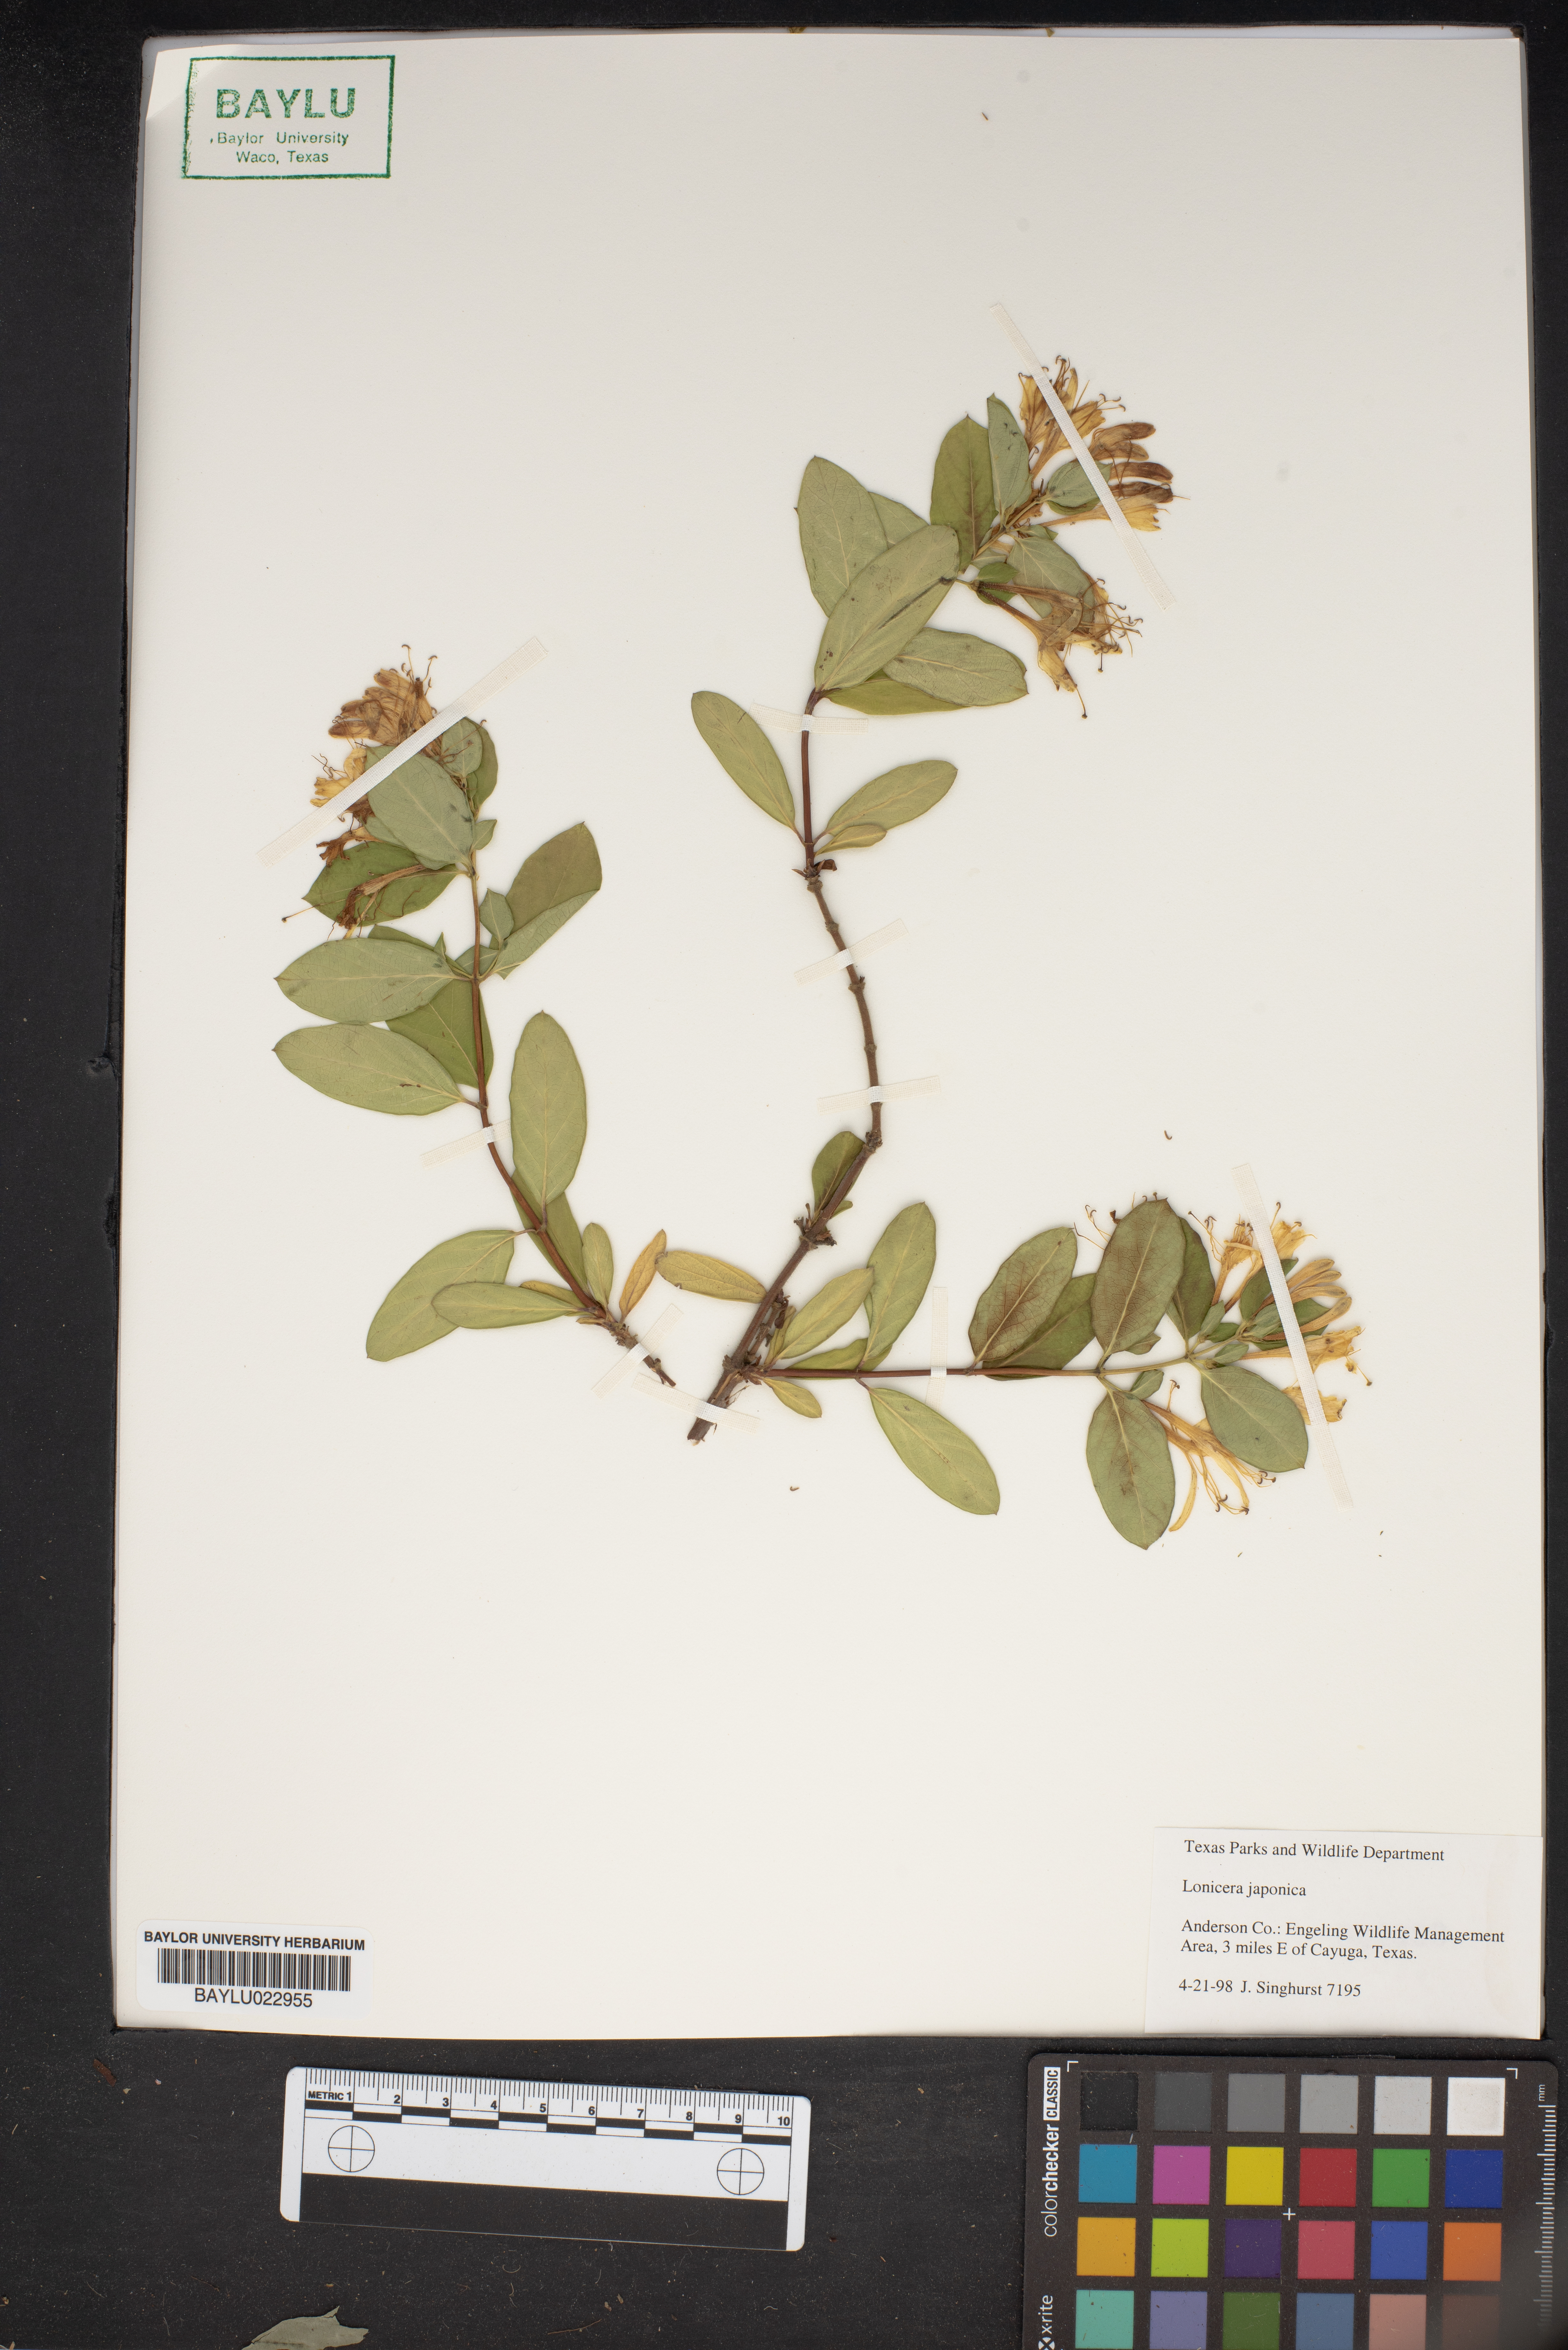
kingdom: Plantae
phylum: Tracheophyta
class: Magnoliopsida
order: Dipsacales
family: Caprifoliaceae
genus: Lonicera
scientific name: Lonicera japonica
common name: Japanese honeysuckle
